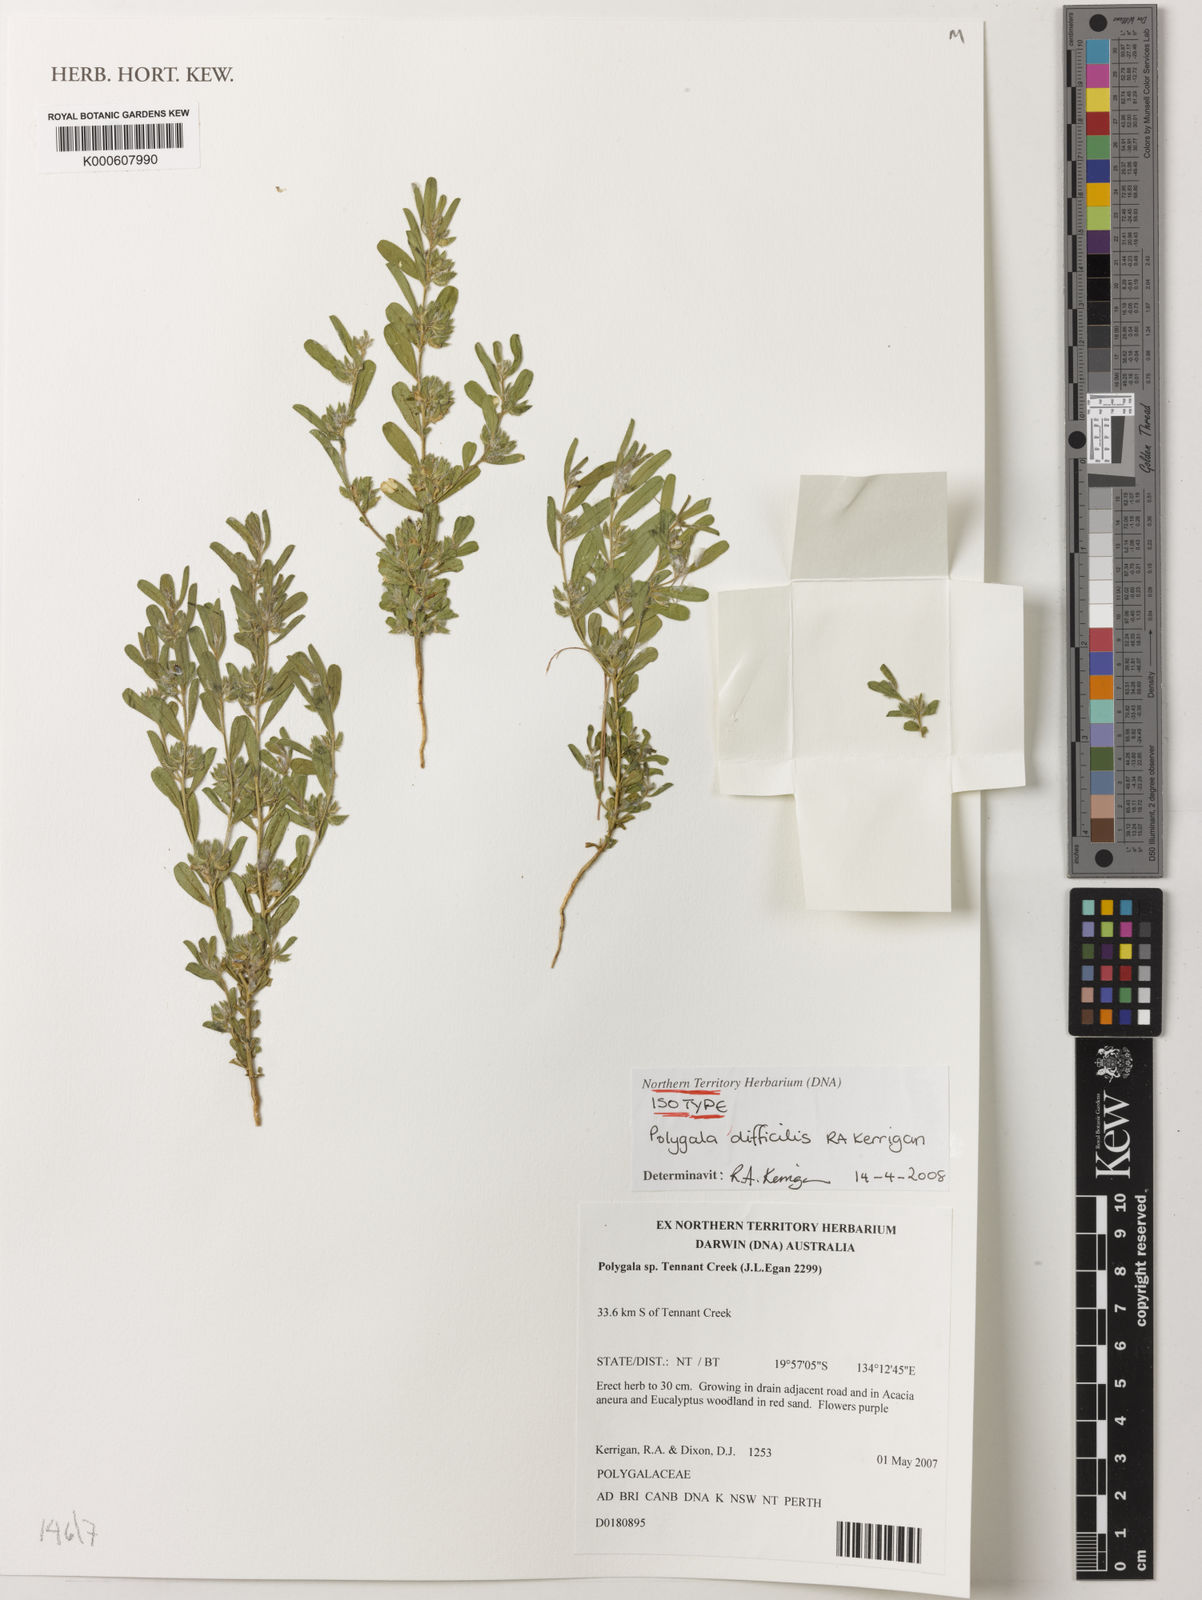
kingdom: Plantae
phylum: Tracheophyta
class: Magnoliopsida
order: Fabales
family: Polygalaceae
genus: Polygala
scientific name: Polygala difficilis
